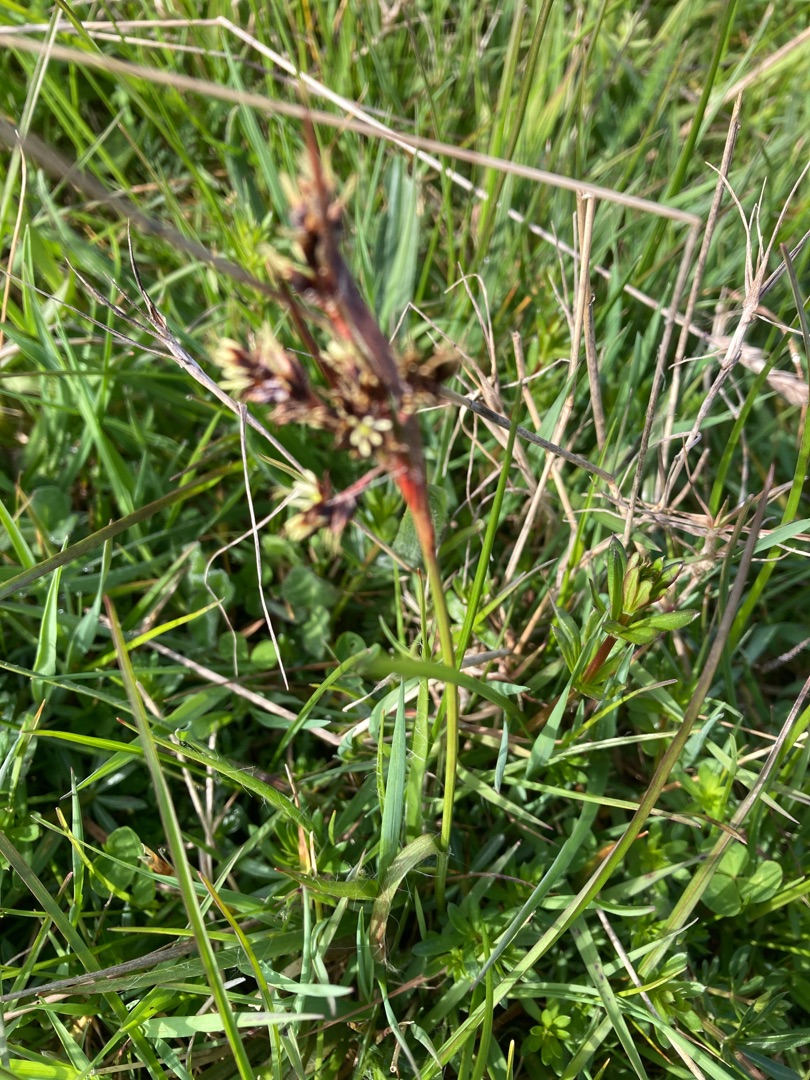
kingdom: Plantae
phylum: Tracheophyta
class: Liliopsida
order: Poales
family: Juncaceae
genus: Luzula
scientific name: Luzula campestris
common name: Mark-frytle
